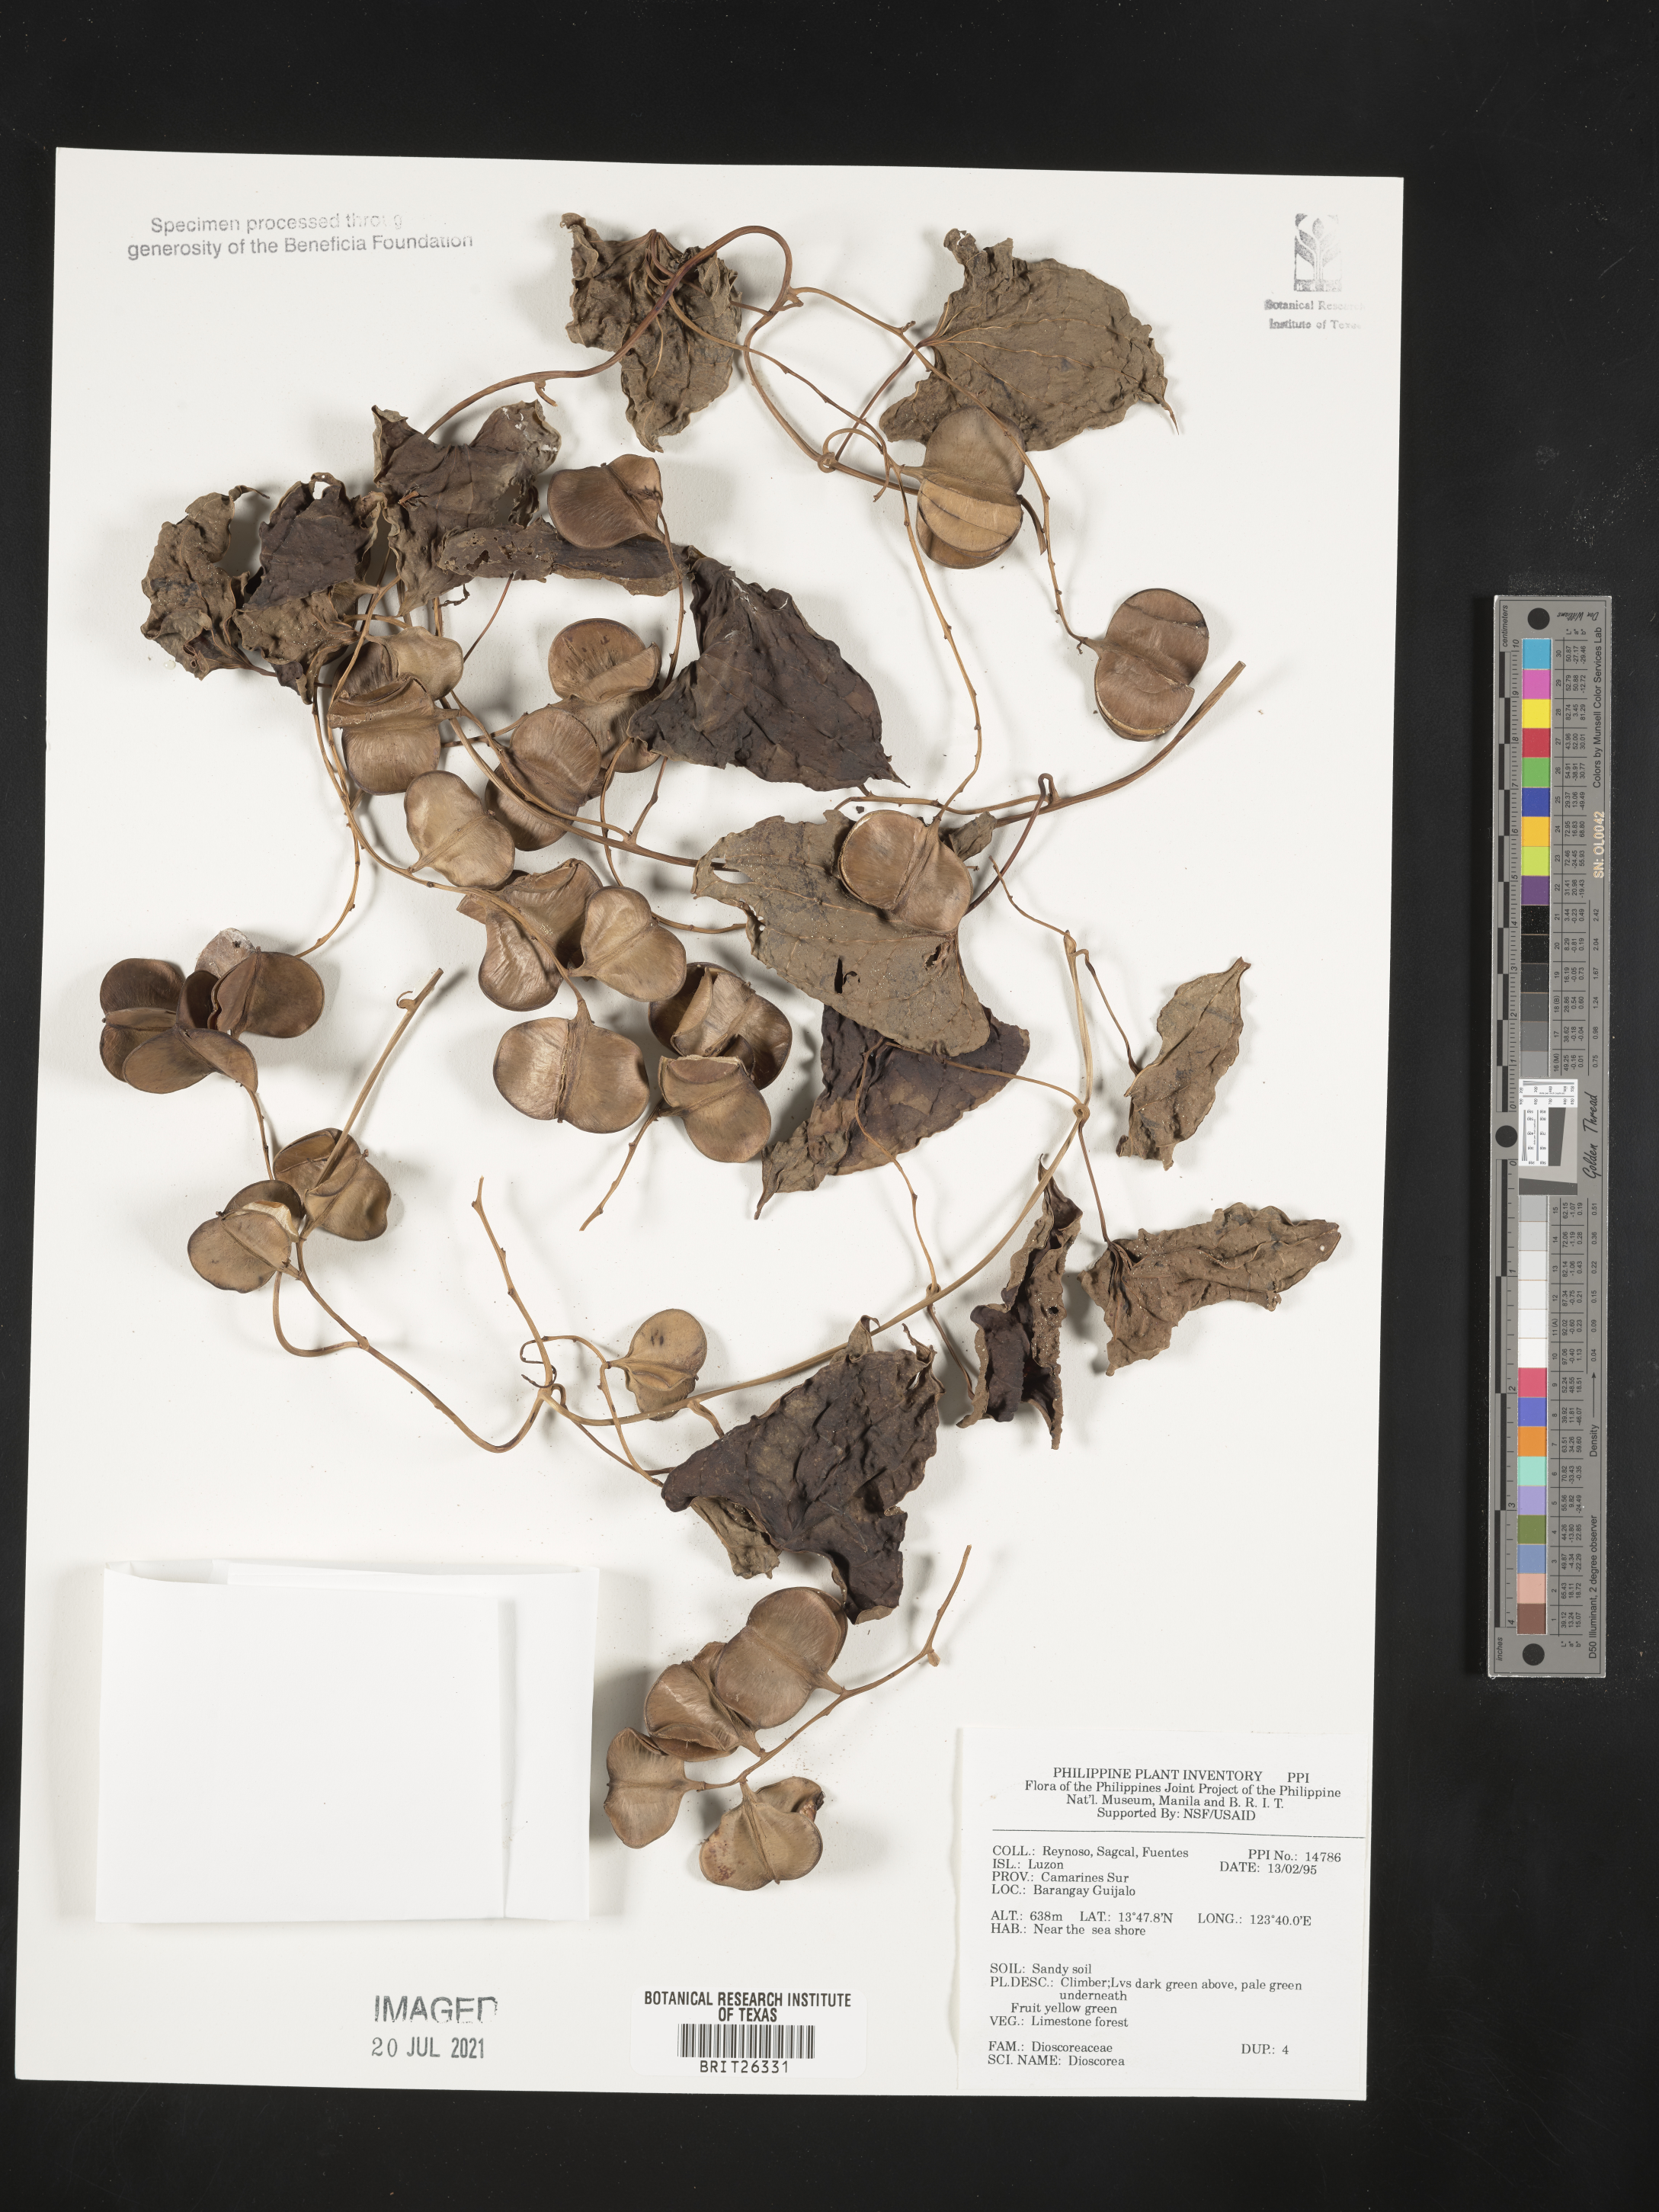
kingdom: Plantae
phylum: Tracheophyta
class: Liliopsida
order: Dioscoreales
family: Dioscoreaceae
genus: Dioscorea
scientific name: Dioscorea
